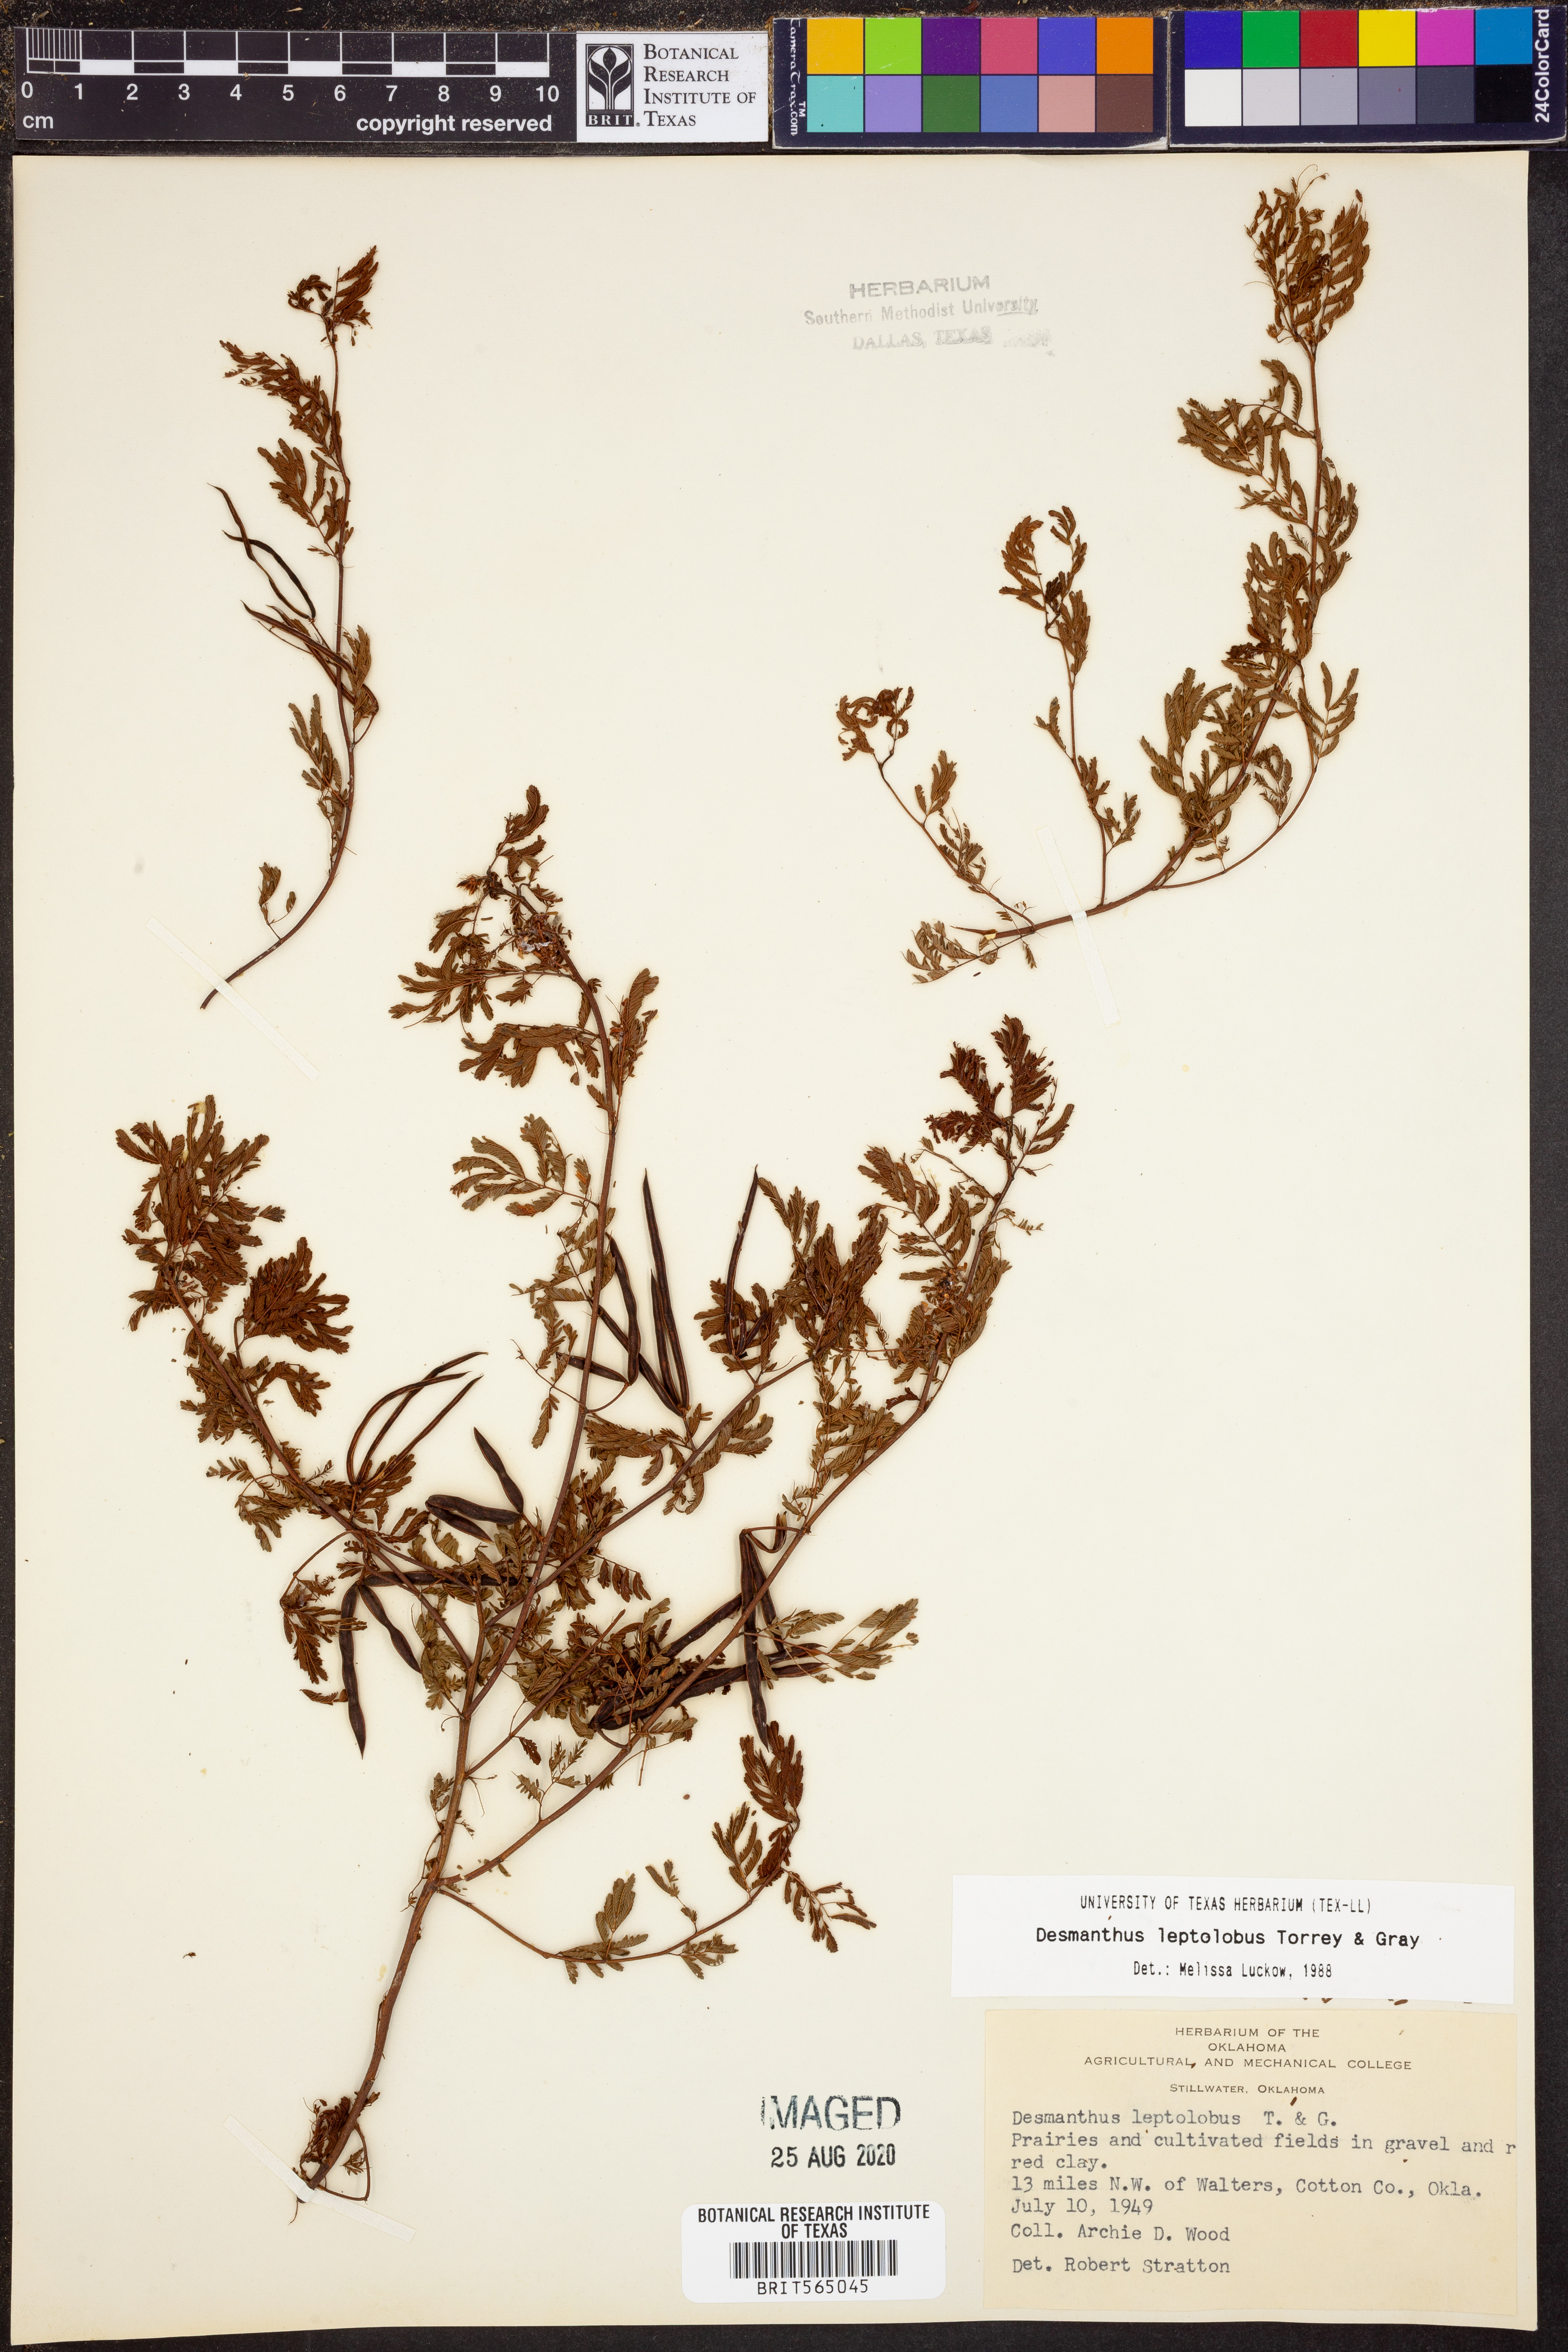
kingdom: Plantae
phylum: Tracheophyta
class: Magnoliopsida
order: Fabales
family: Fabaceae
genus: Desmanthus
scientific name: Desmanthus leptolobus
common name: Prairie-mimosa
